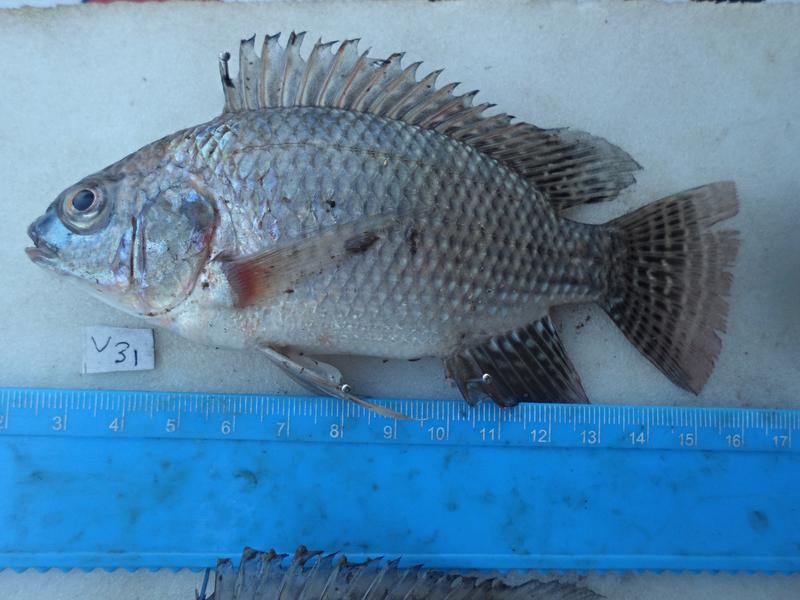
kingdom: Animalia
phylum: Chordata
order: Perciformes
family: Cichlidae
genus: Oreochromis
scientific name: Oreochromis niloticus
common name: Nile tilapia
